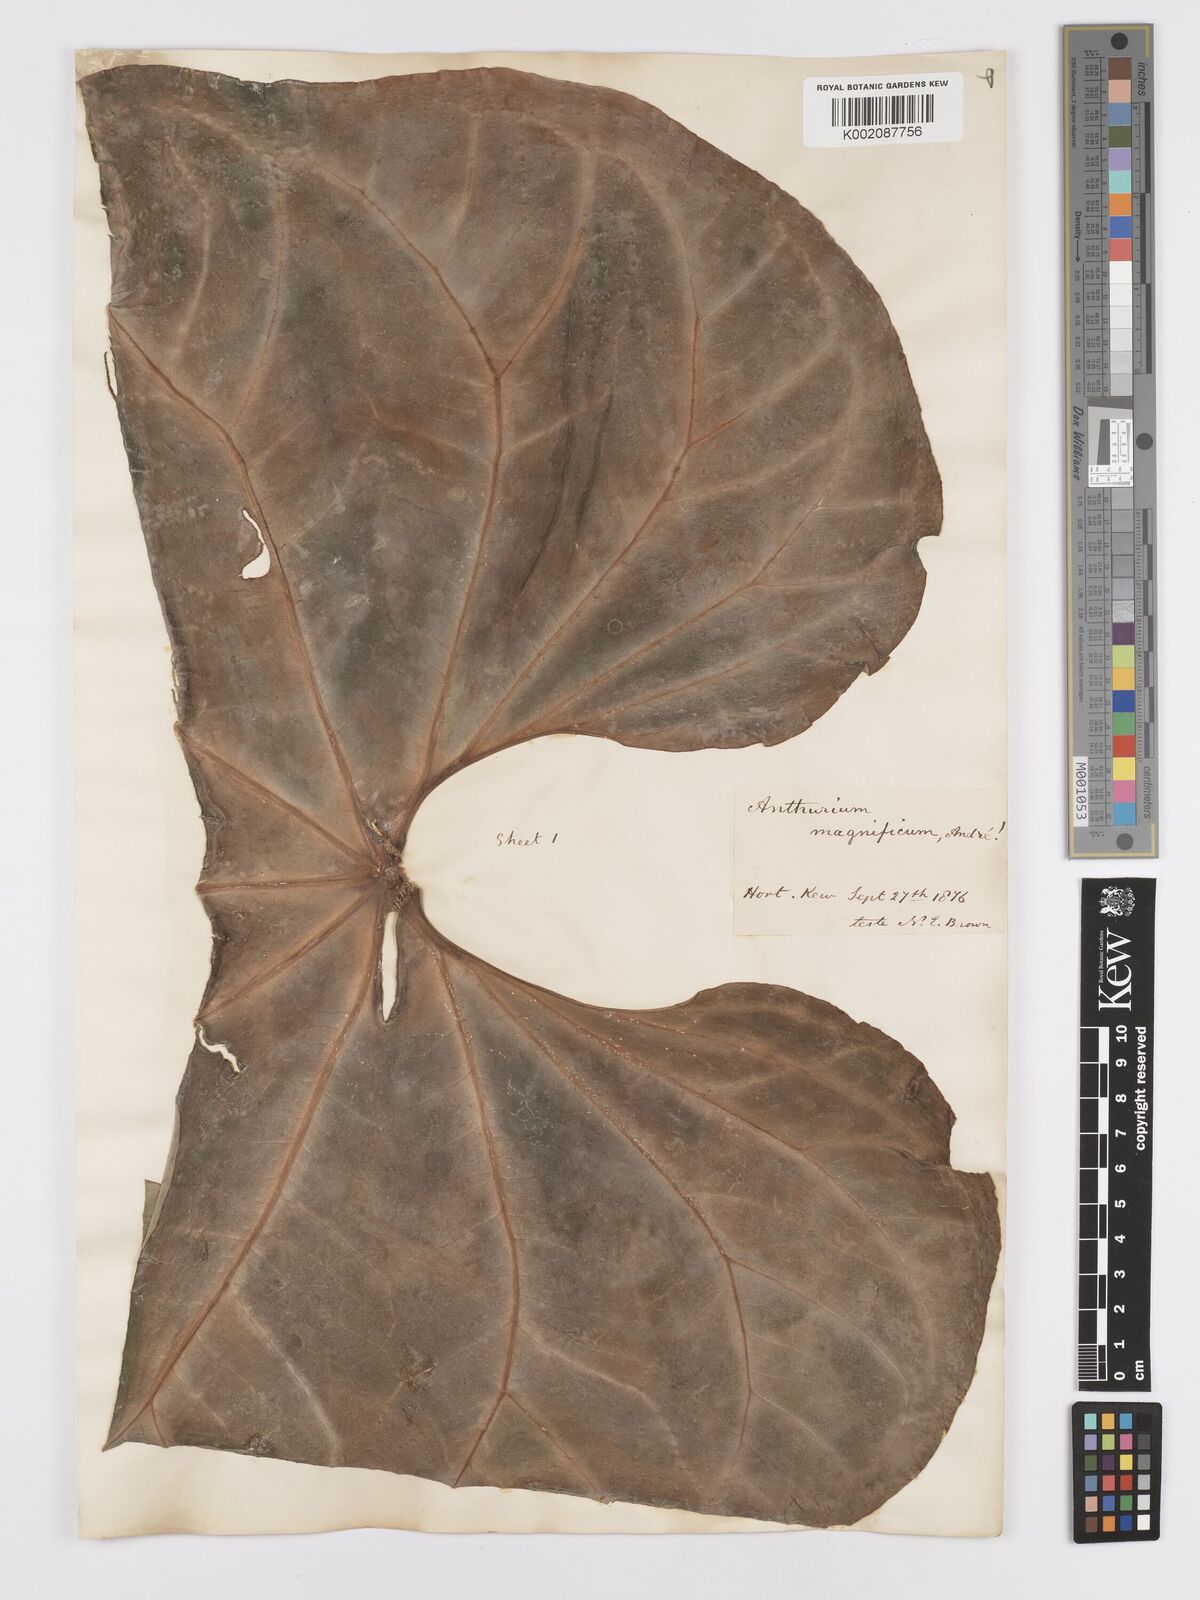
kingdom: Plantae
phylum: Tracheophyta
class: Liliopsida
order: Alismatales
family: Araceae
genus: Anthurium
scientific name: Anthurium magnificum
